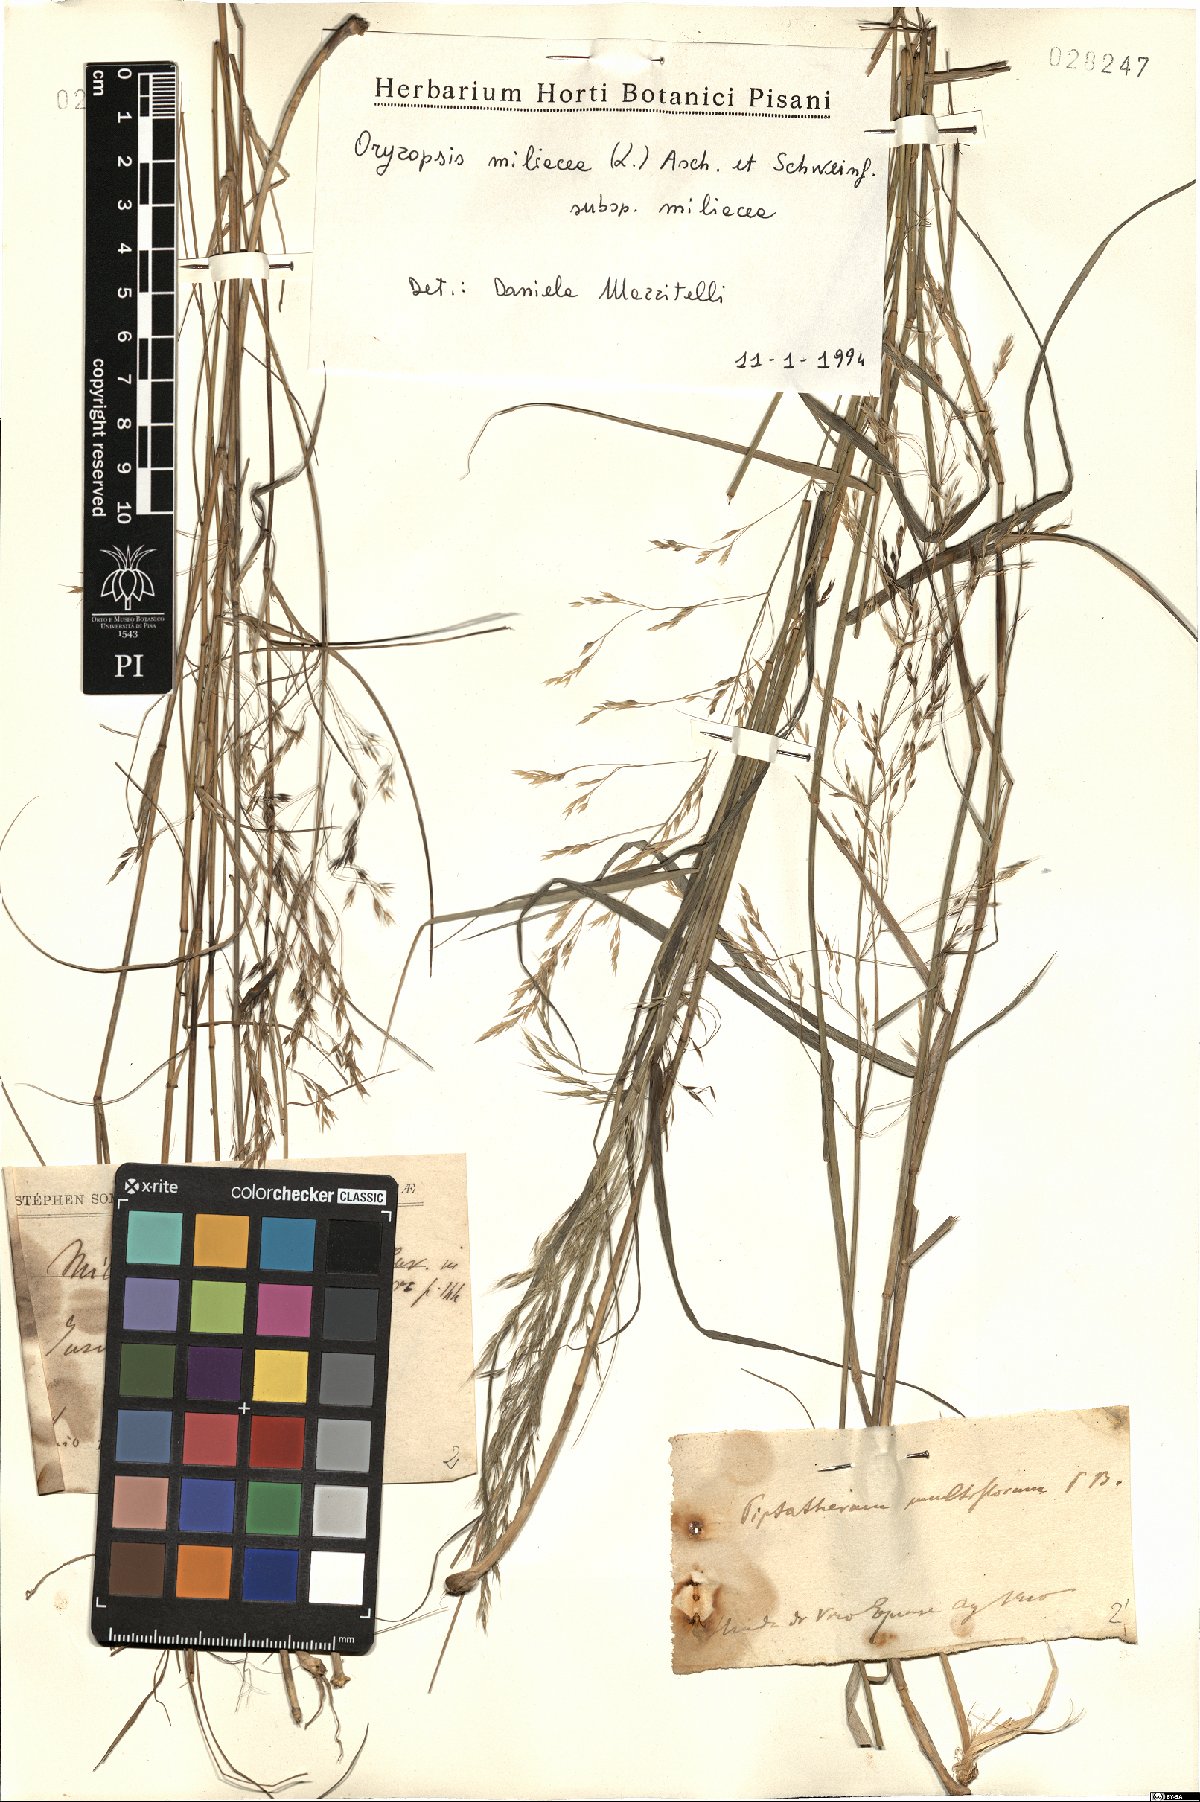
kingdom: Plantae
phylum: Tracheophyta
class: Liliopsida
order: Poales
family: Poaceae
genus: Oryzopsis
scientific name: Oryzopsis miliacea
